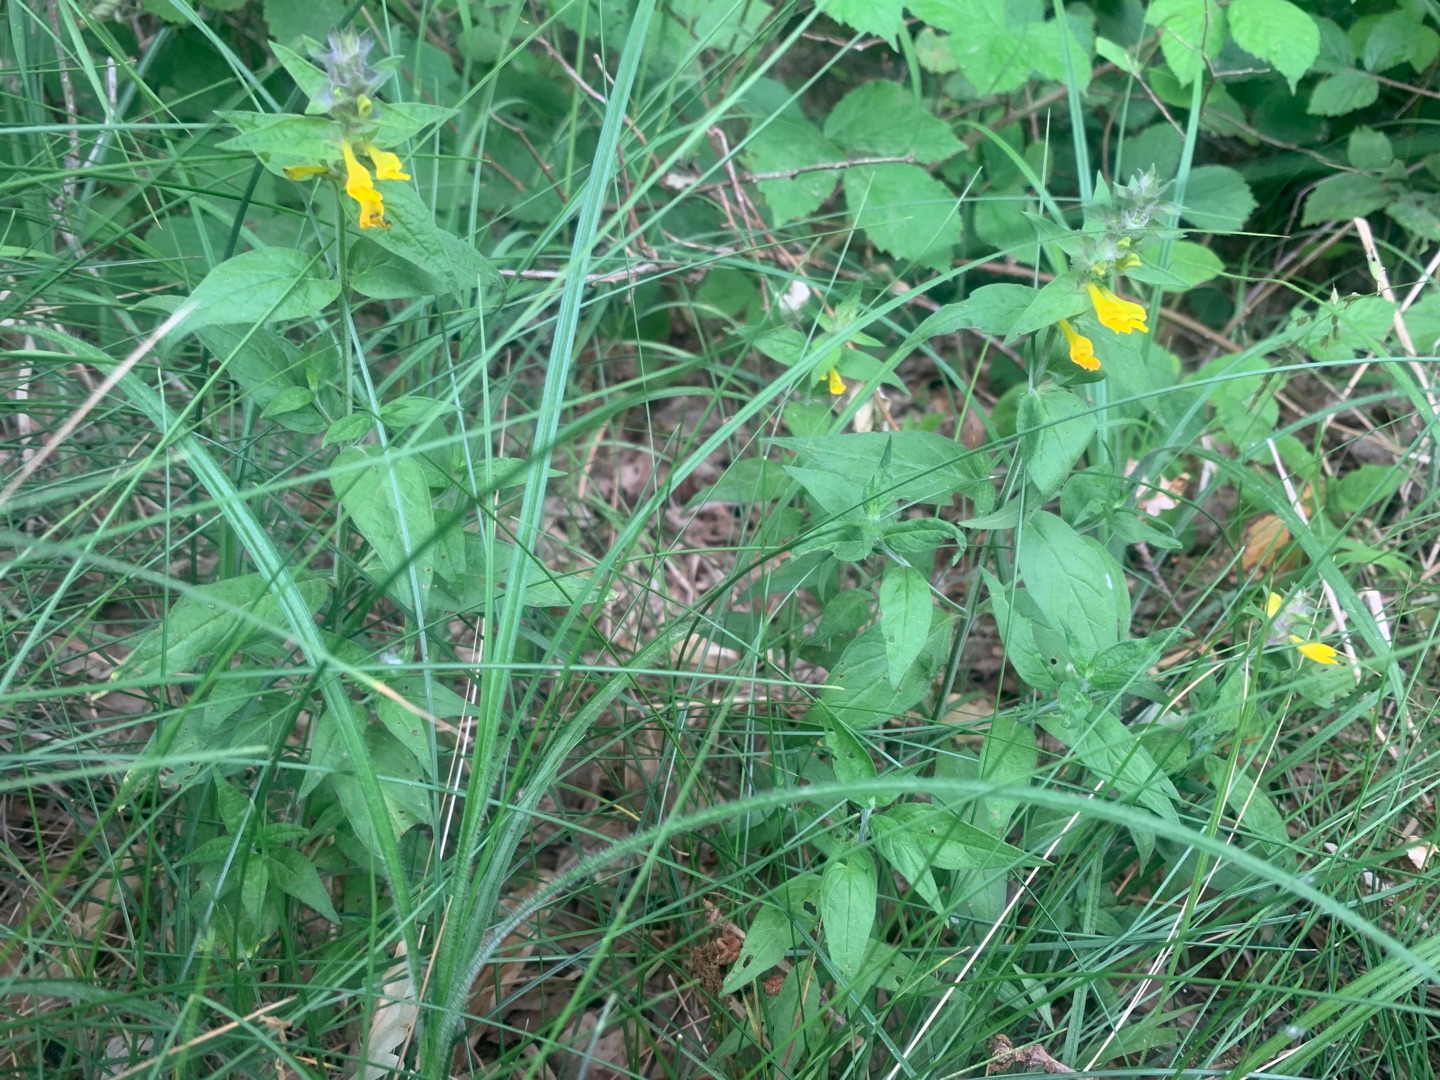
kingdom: Plantae
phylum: Tracheophyta
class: Magnoliopsida
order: Lamiales
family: Orobanchaceae
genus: Melampyrum
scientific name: Melampyrum nemorosum
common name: Blåtoppet kohvede
